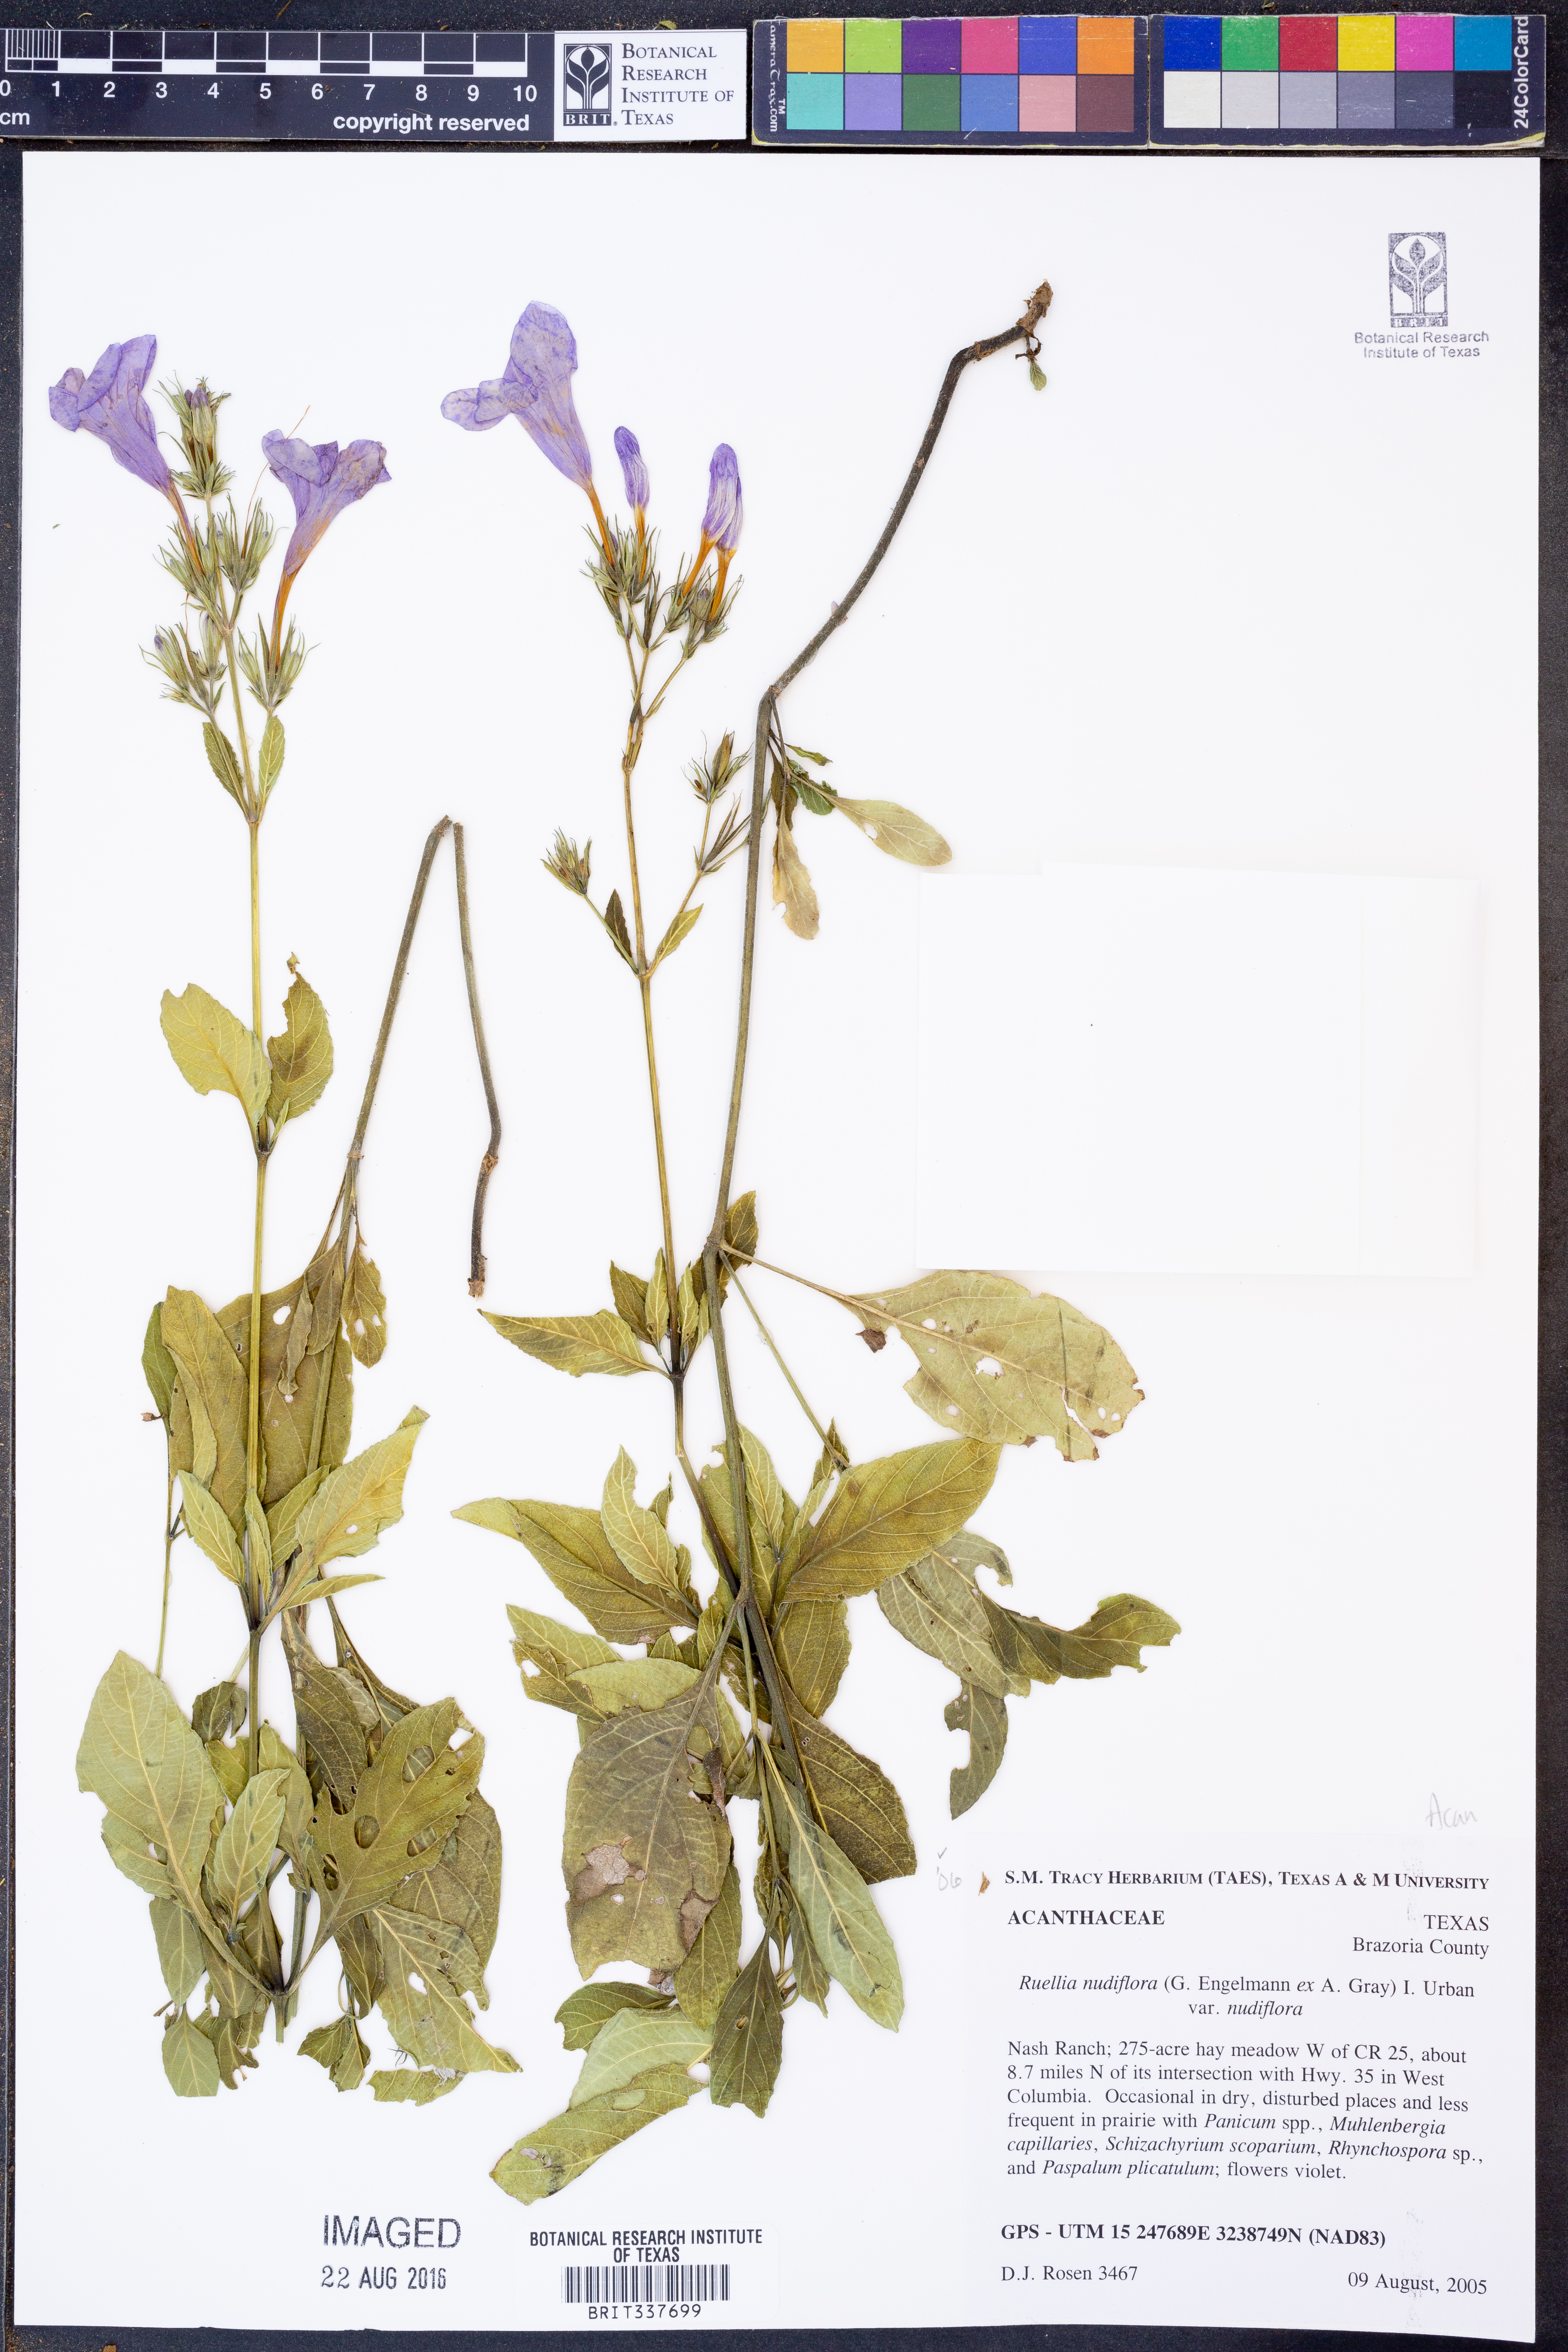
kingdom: Plantae
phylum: Tracheophyta
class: Magnoliopsida
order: Lamiales
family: Acanthaceae
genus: Ruellia
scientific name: Ruellia ciliatiflora
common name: Hairyflower wild petunia
